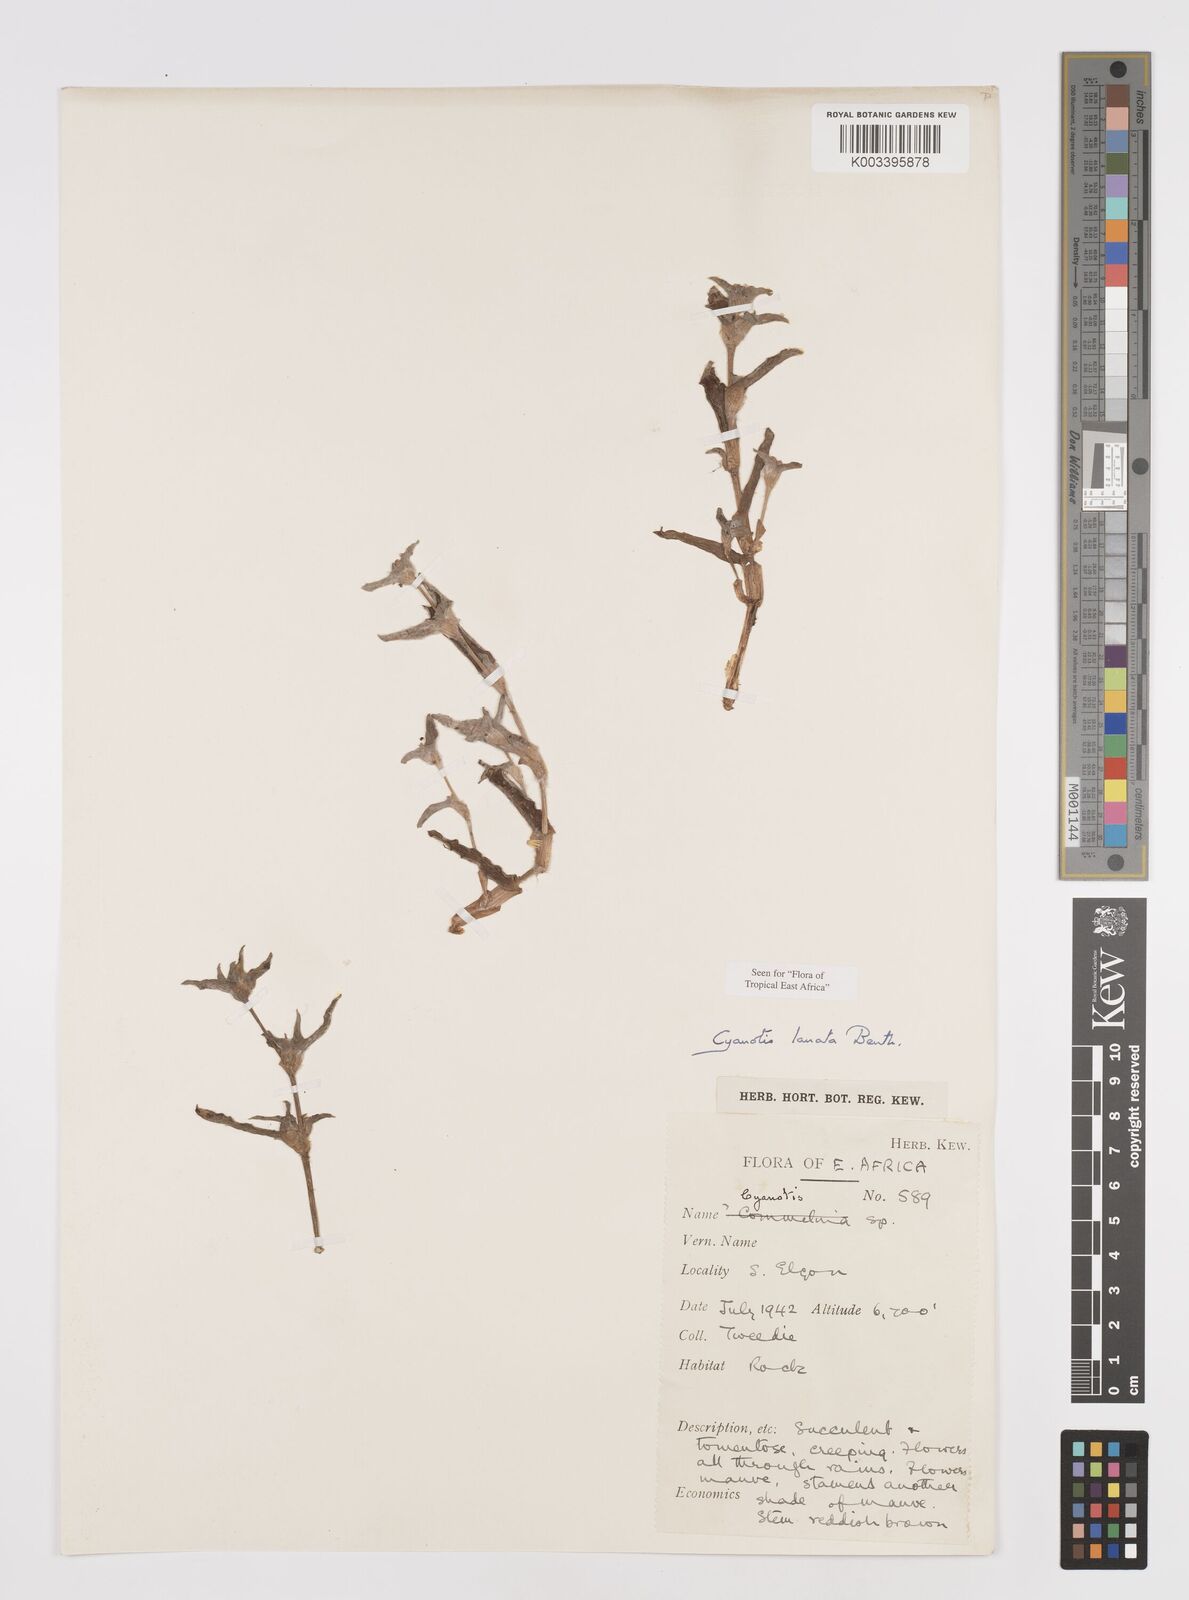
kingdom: Plantae
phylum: Tracheophyta
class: Liliopsida
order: Commelinales
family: Commelinaceae
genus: Cyanotis
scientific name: Cyanotis lanata
